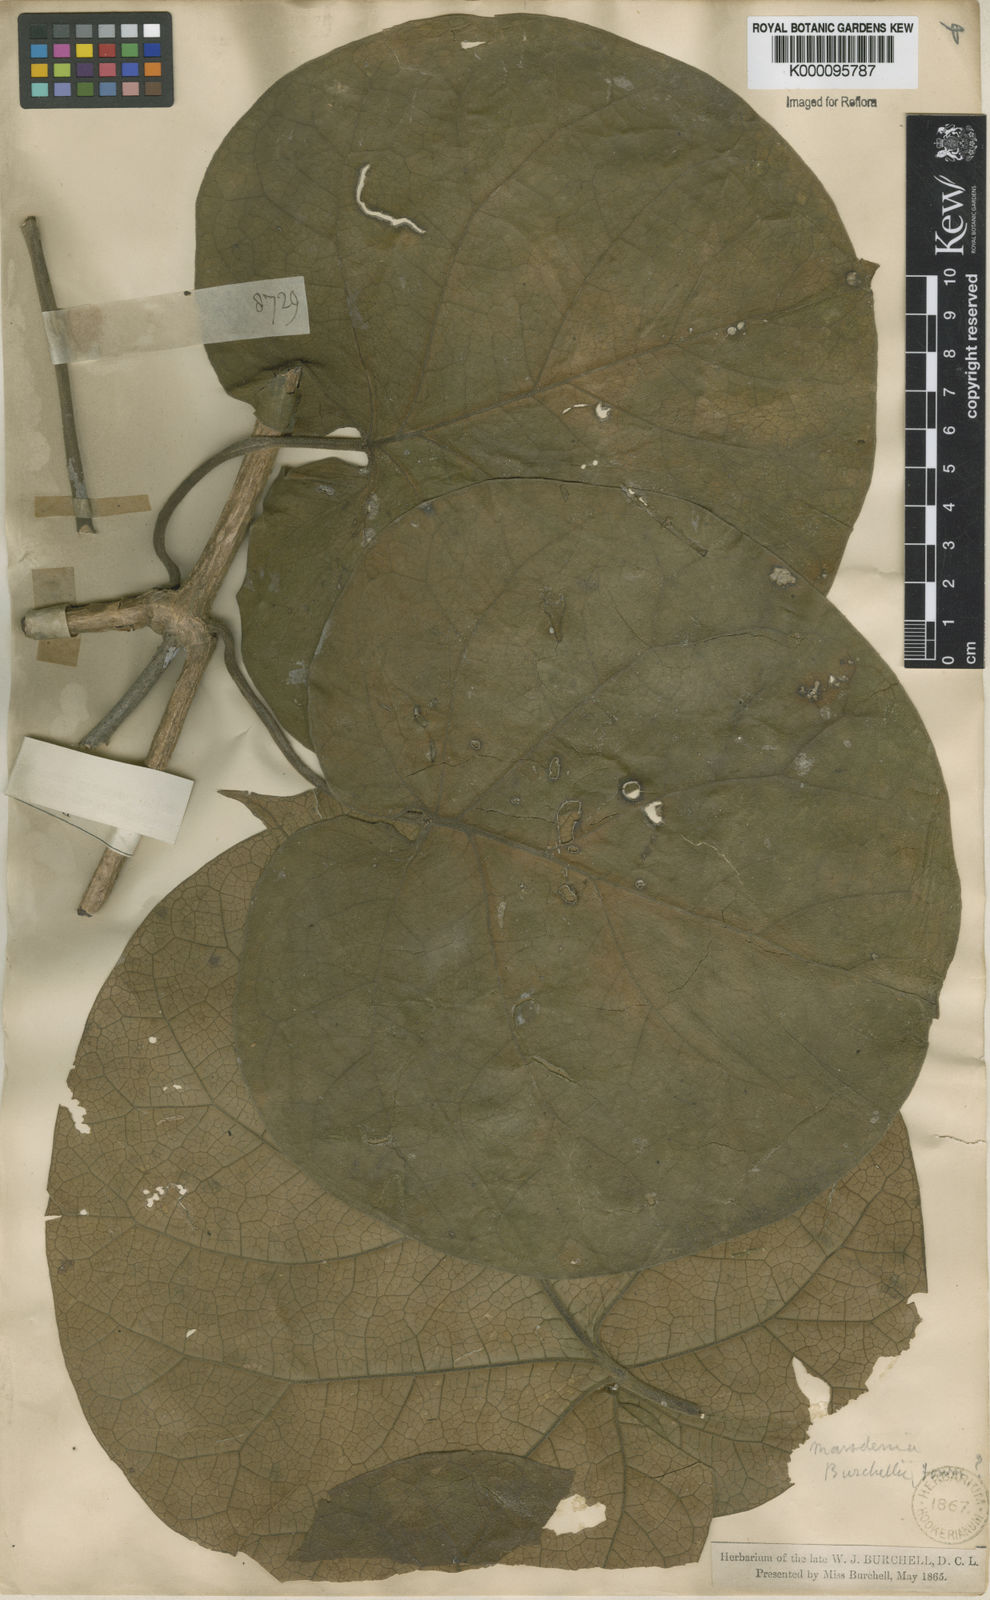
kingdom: Plantae
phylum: Tracheophyta
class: Magnoliopsida
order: Gentianales
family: Apocynaceae
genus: Ruehssia
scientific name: Ruehssia altissima
